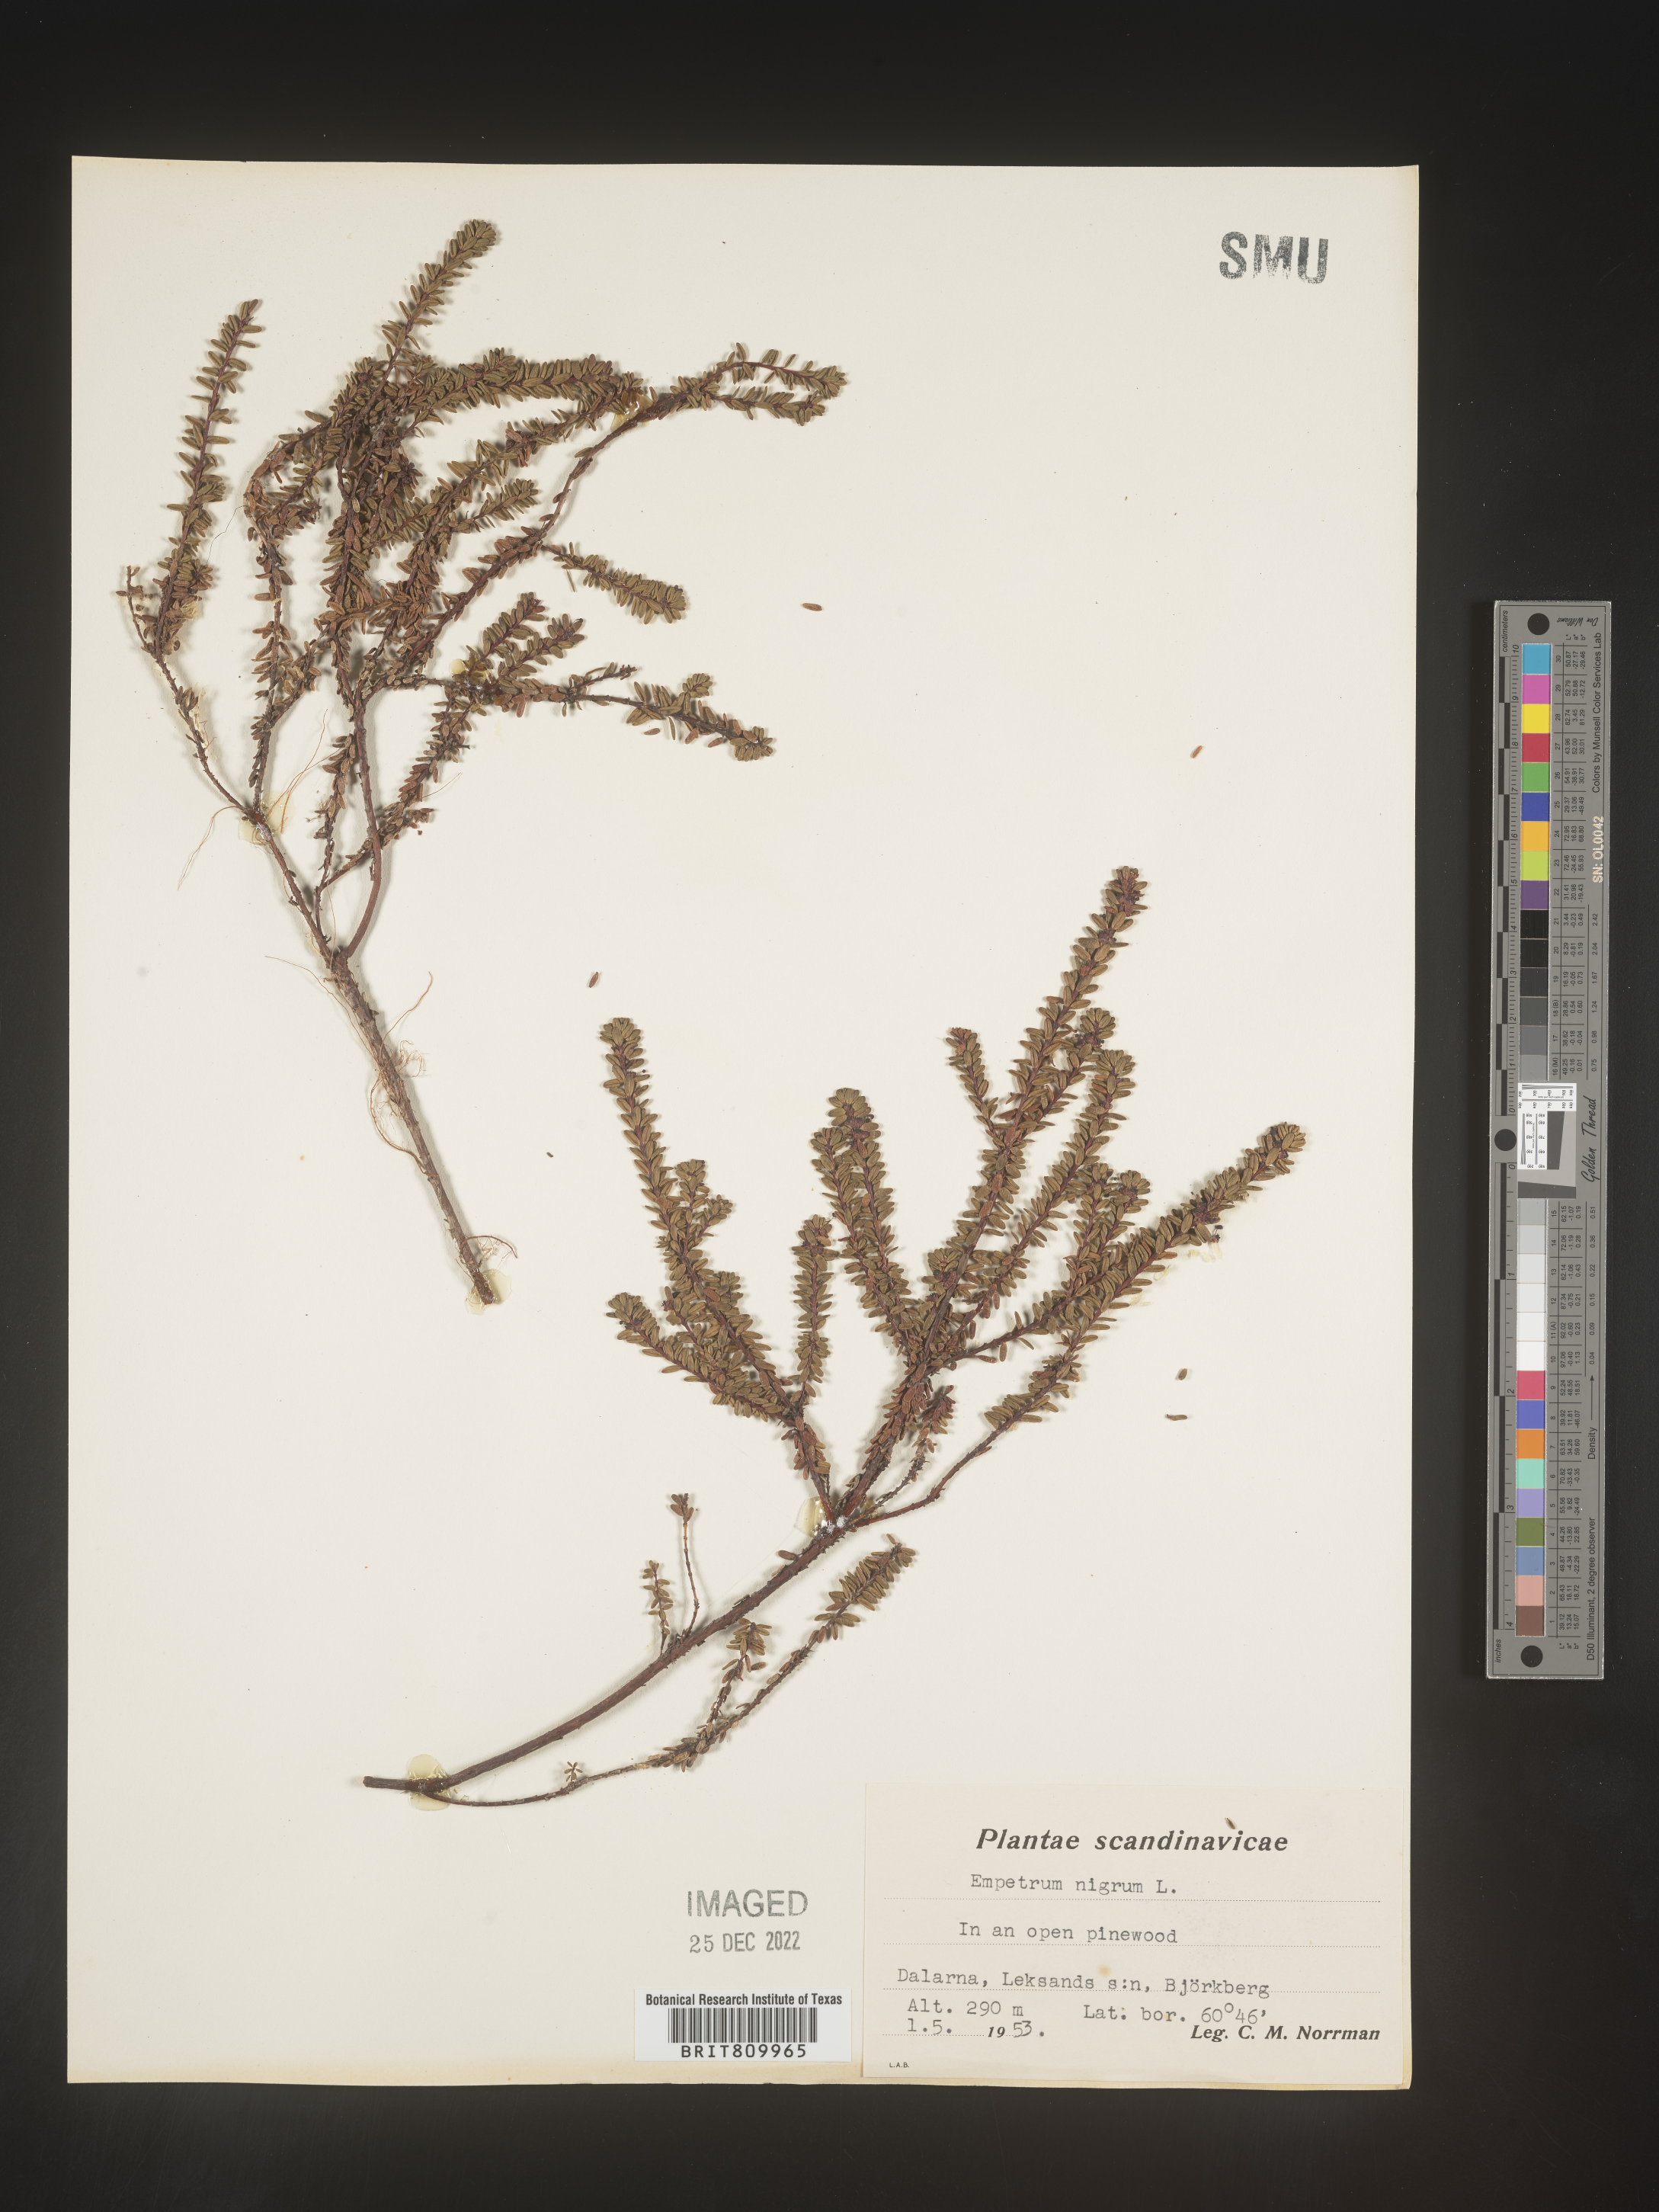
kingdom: Plantae
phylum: Tracheophyta
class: Magnoliopsida
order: Ericales
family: Ericaceae
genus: Empetrum
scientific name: Empetrum
